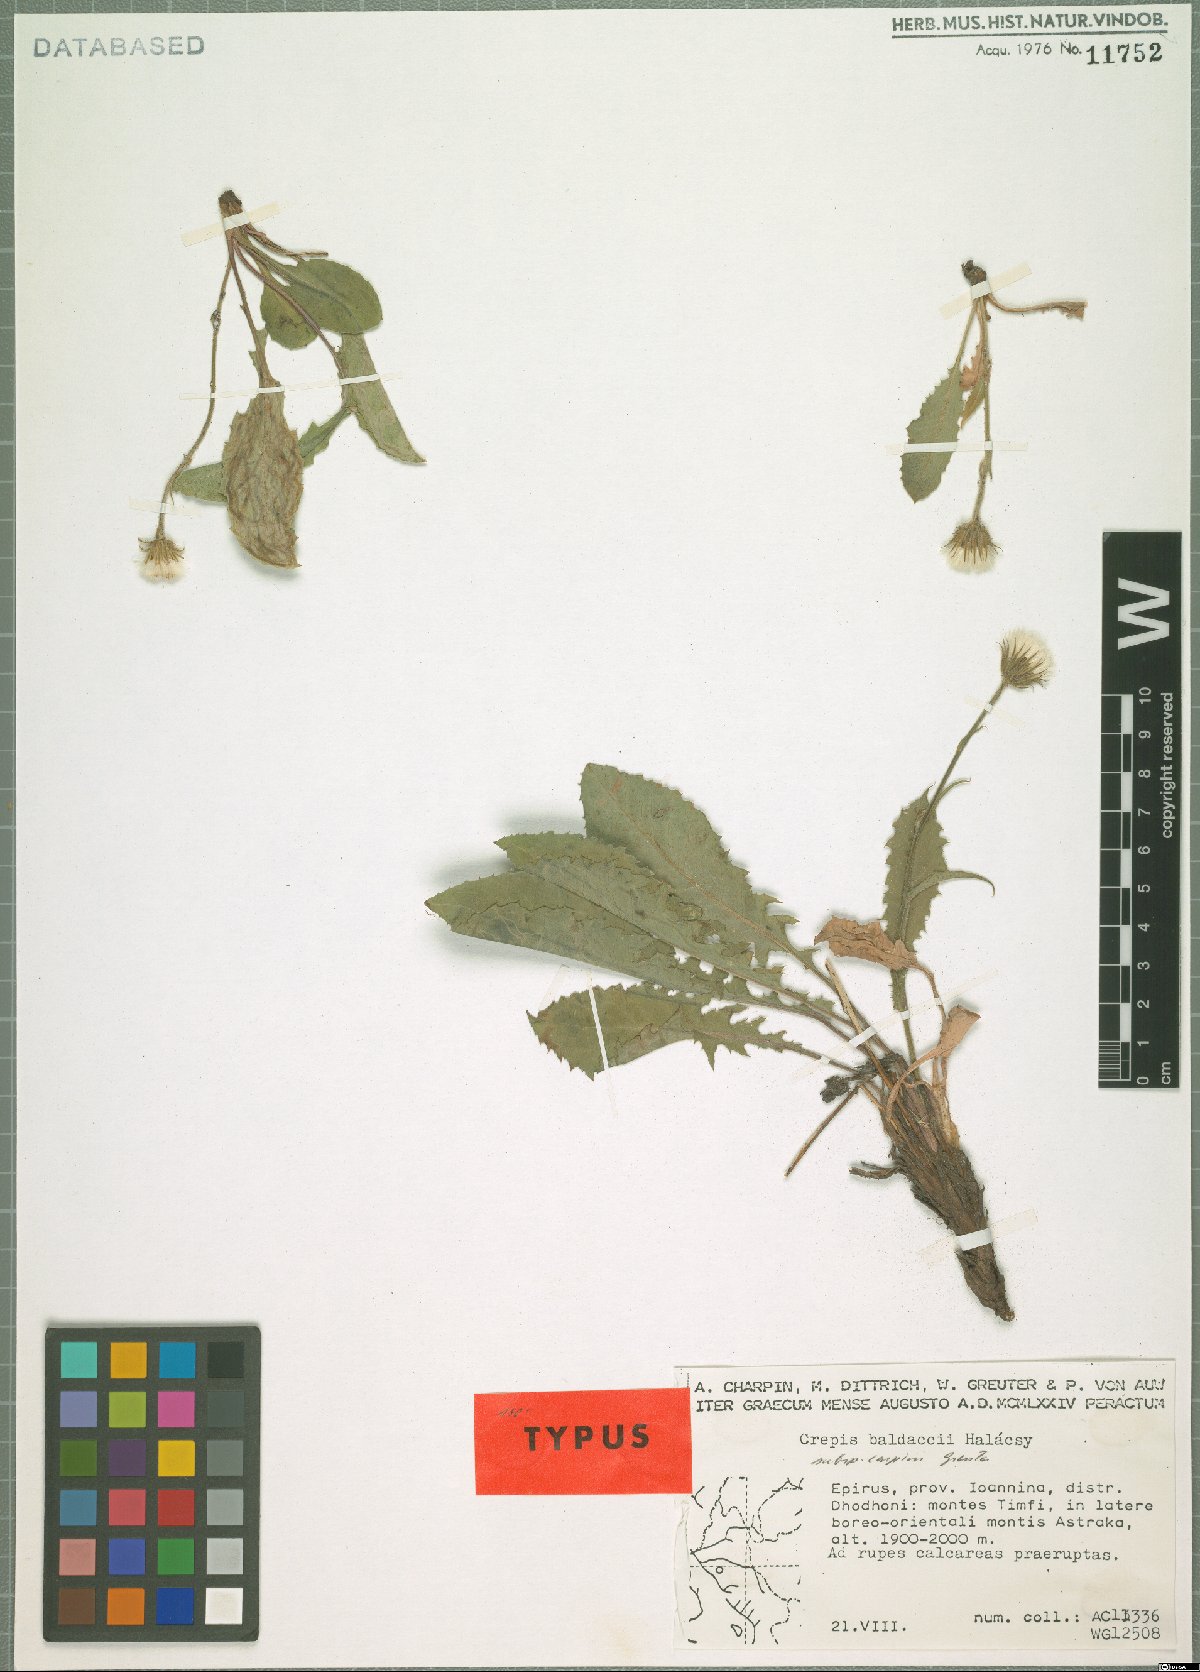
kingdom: Plantae
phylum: Tracheophyta
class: Magnoliopsida
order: Asterales
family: Asteraceae
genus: Crepis
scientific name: Crepis baldaccii
